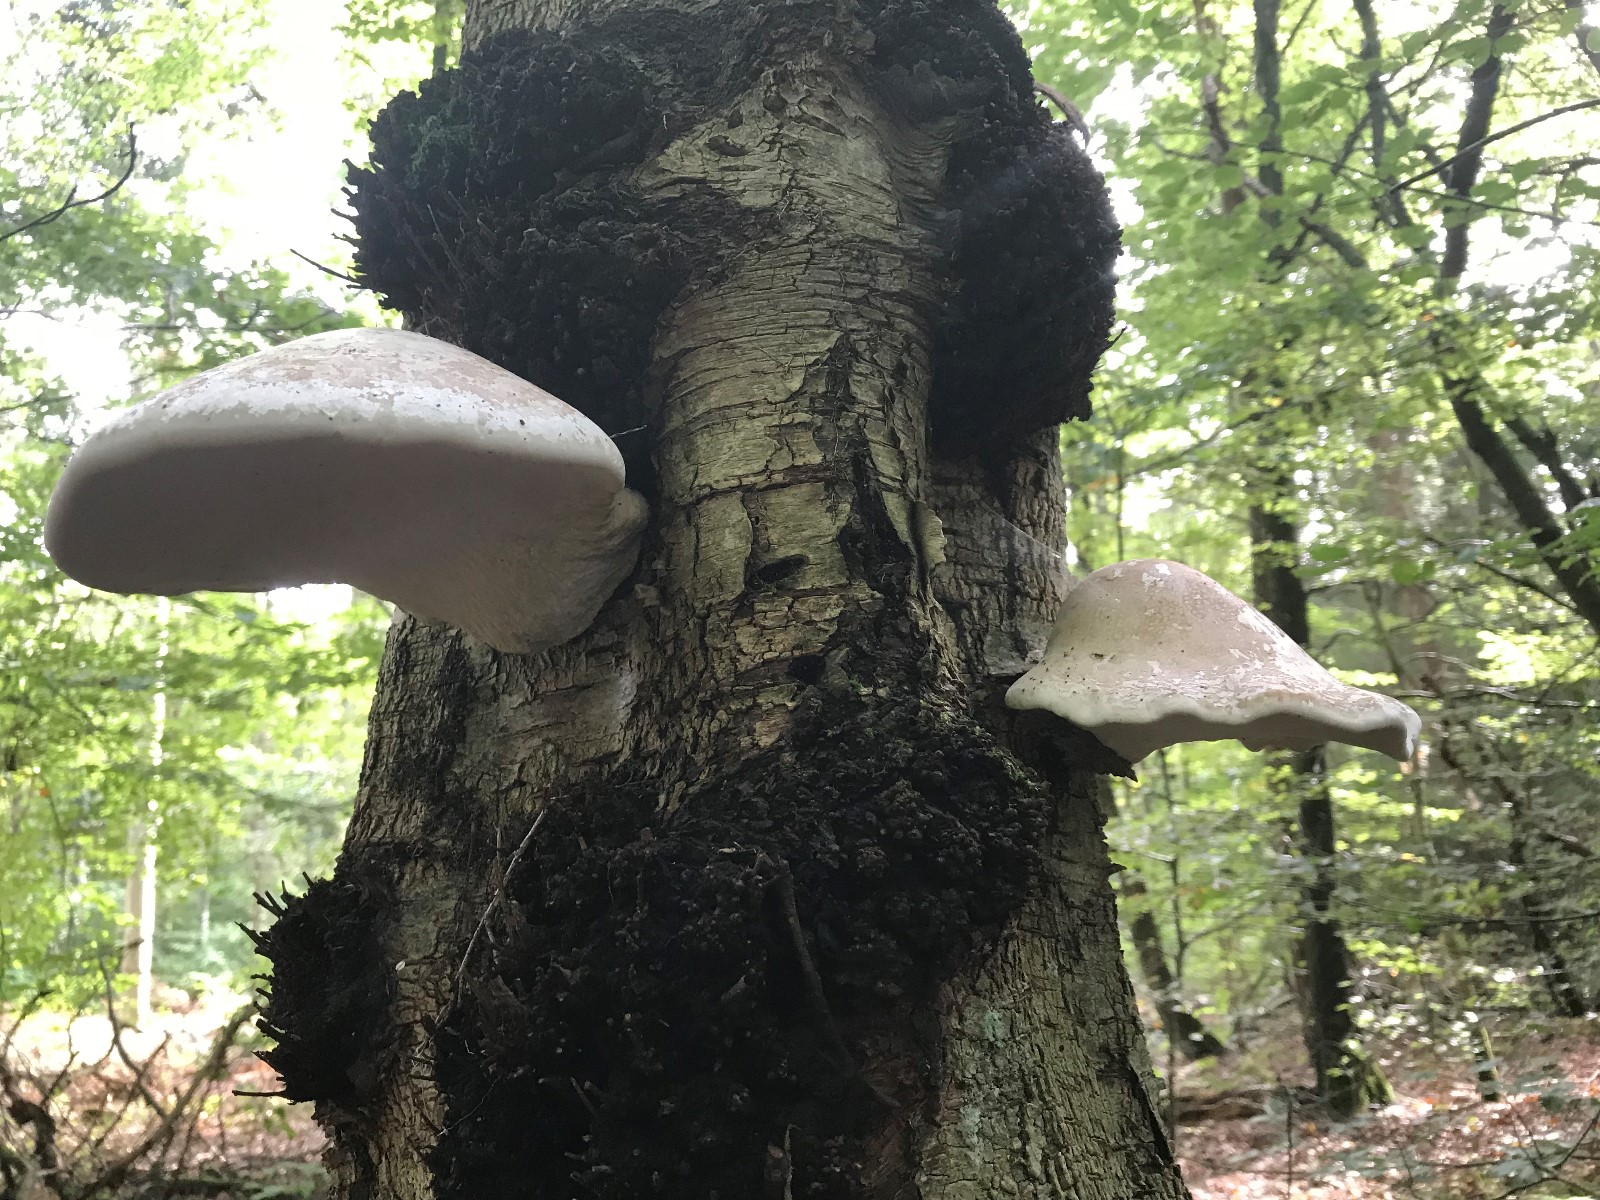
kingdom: Fungi
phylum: Basidiomycota
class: Agaricomycetes
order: Polyporales
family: Fomitopsidaceae
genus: Fomitopsis
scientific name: Fomitopsis betulina
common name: birkeporesvamp
